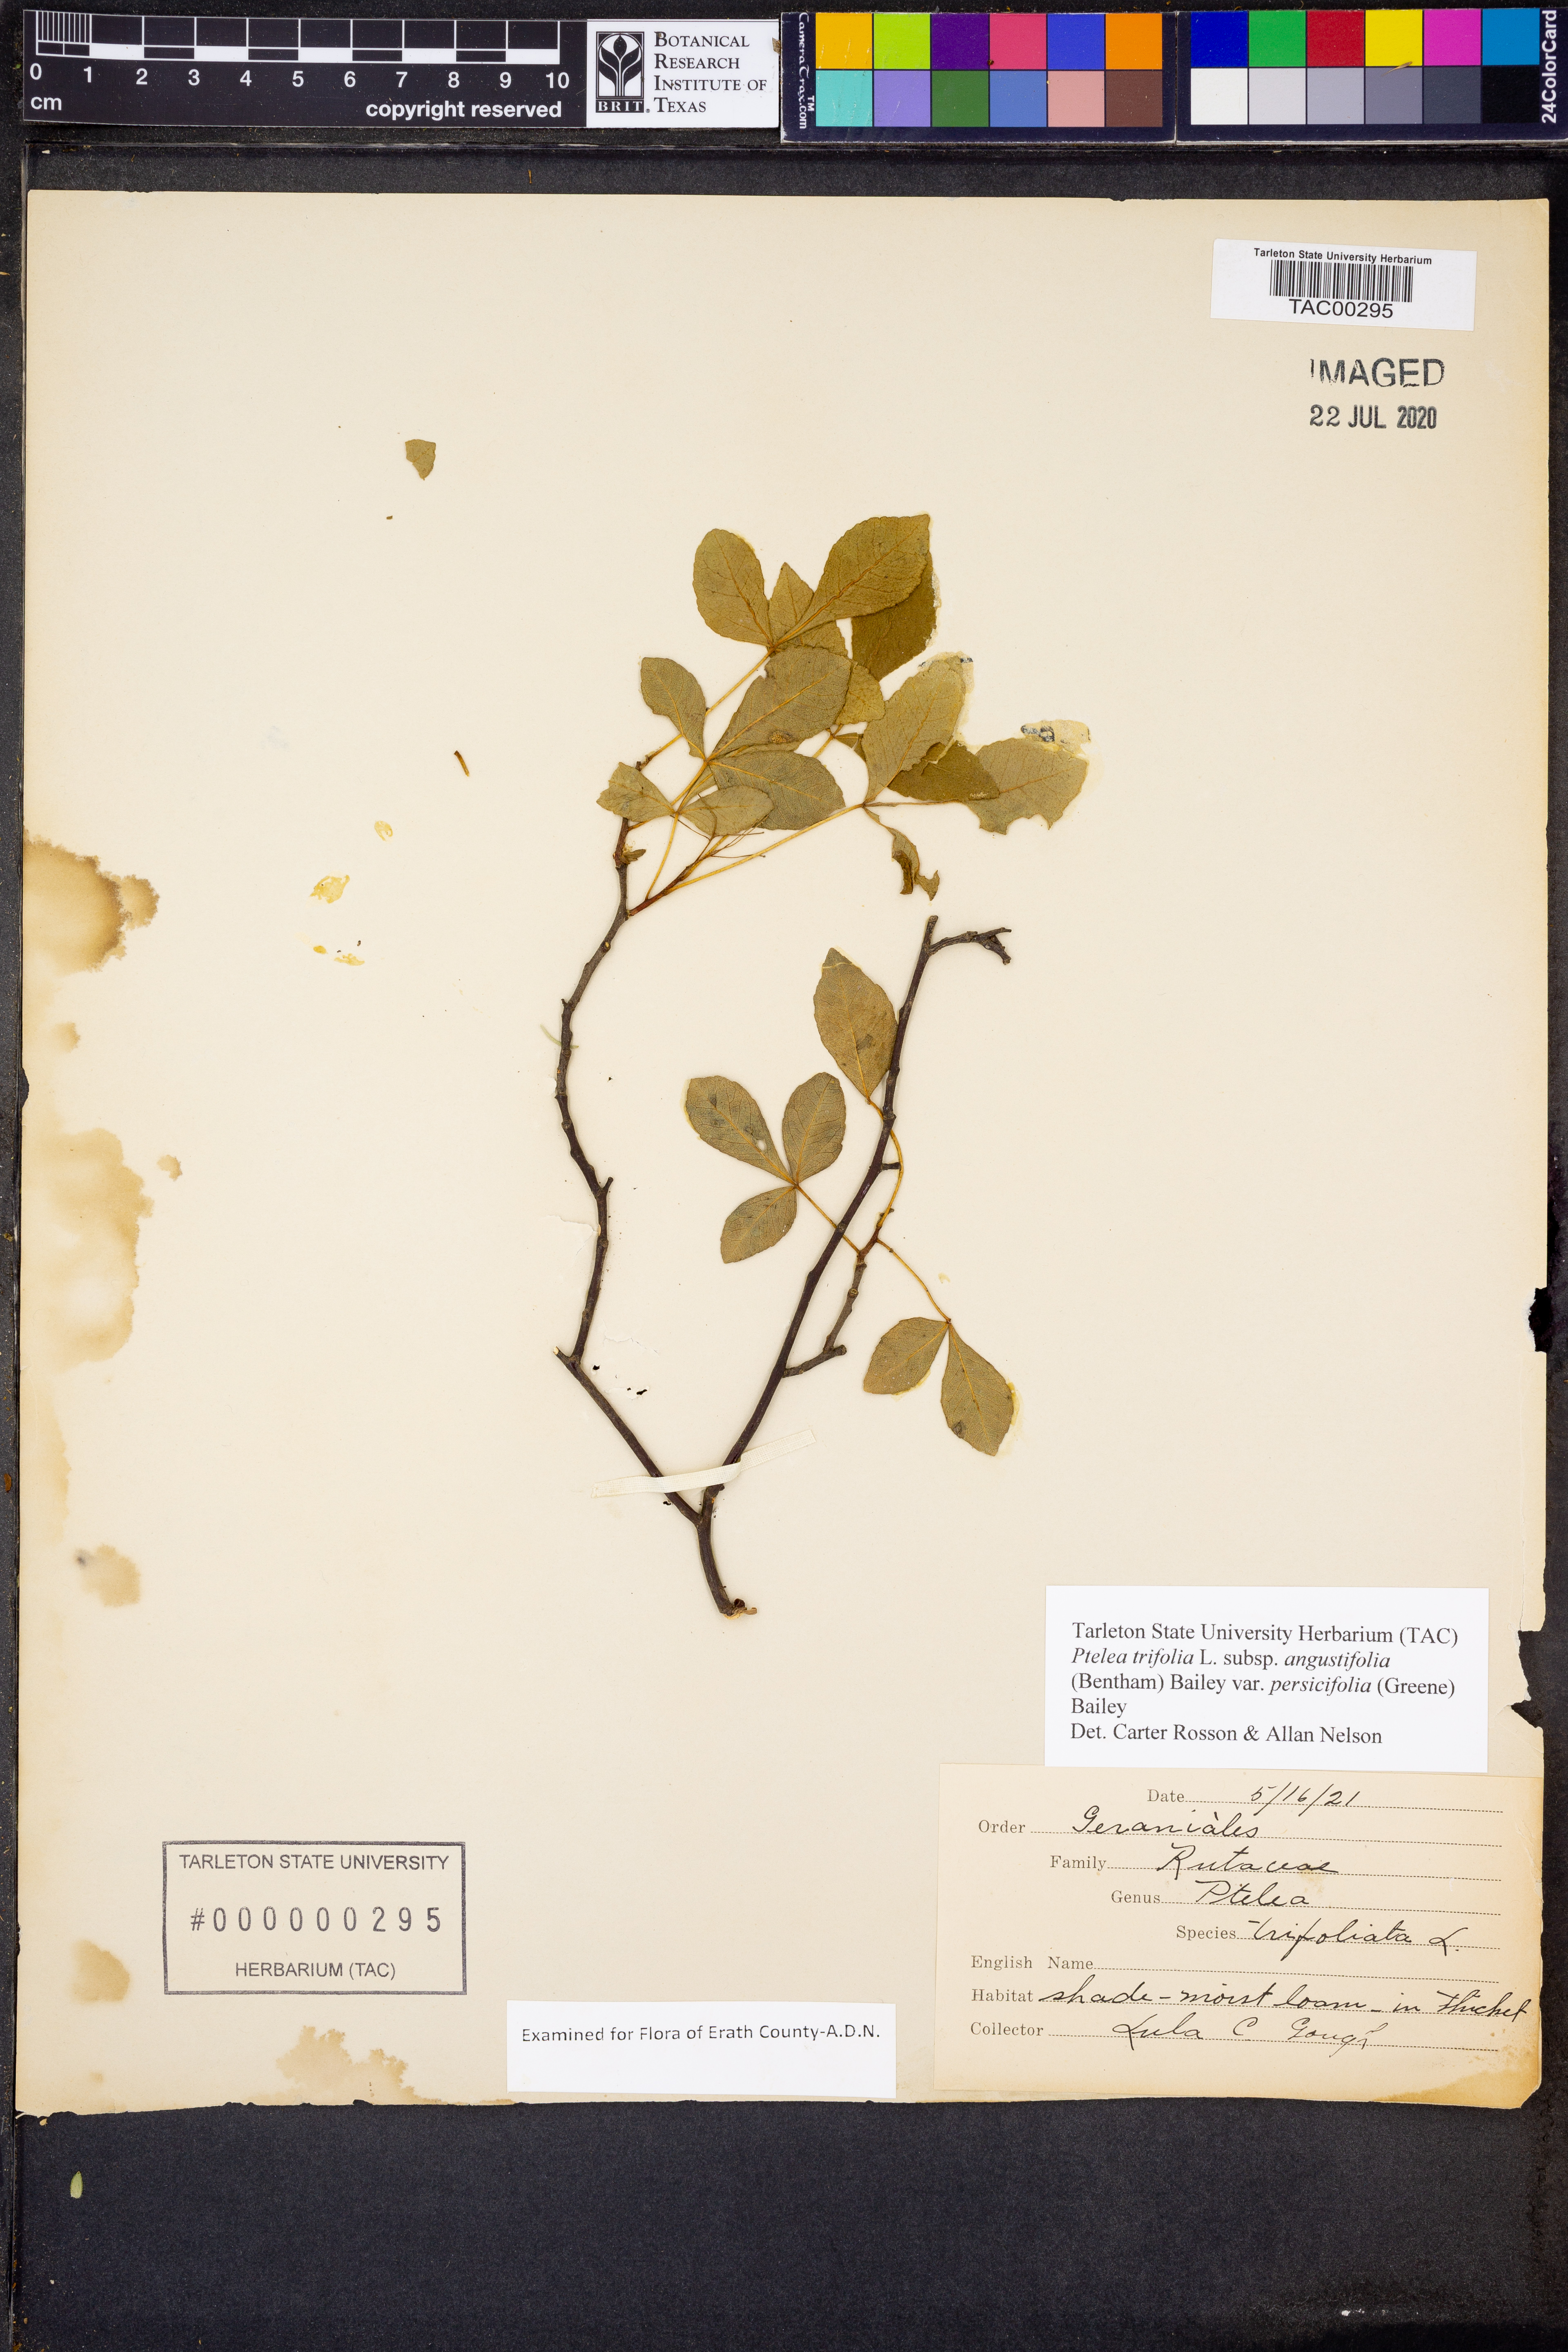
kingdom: Plantae
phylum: Tracheophyta
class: Magnoliopsida
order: Sapindales
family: Rutaceae
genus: Ptelea
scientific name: Ptelea trifoliata
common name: Common hop-tree
